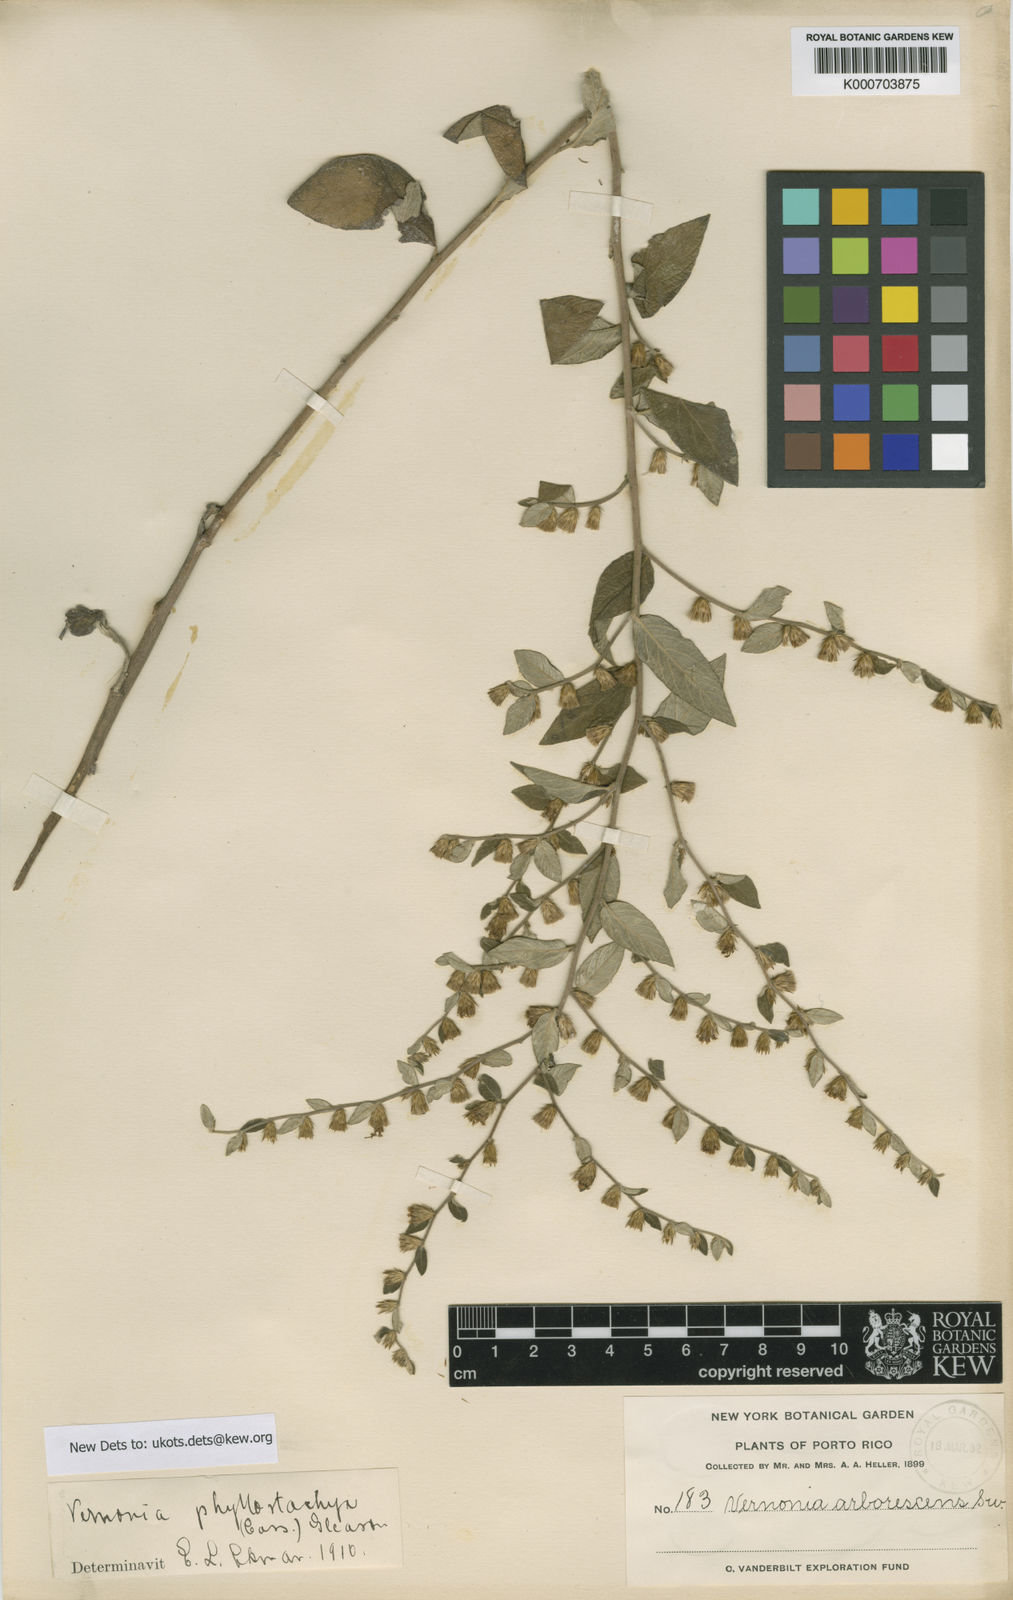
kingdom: Plantae
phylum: Tracheophyta
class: Magnoliopsida
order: Asterales
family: Asteraceae
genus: Lepidaploa
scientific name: Lepidaploa sericea
